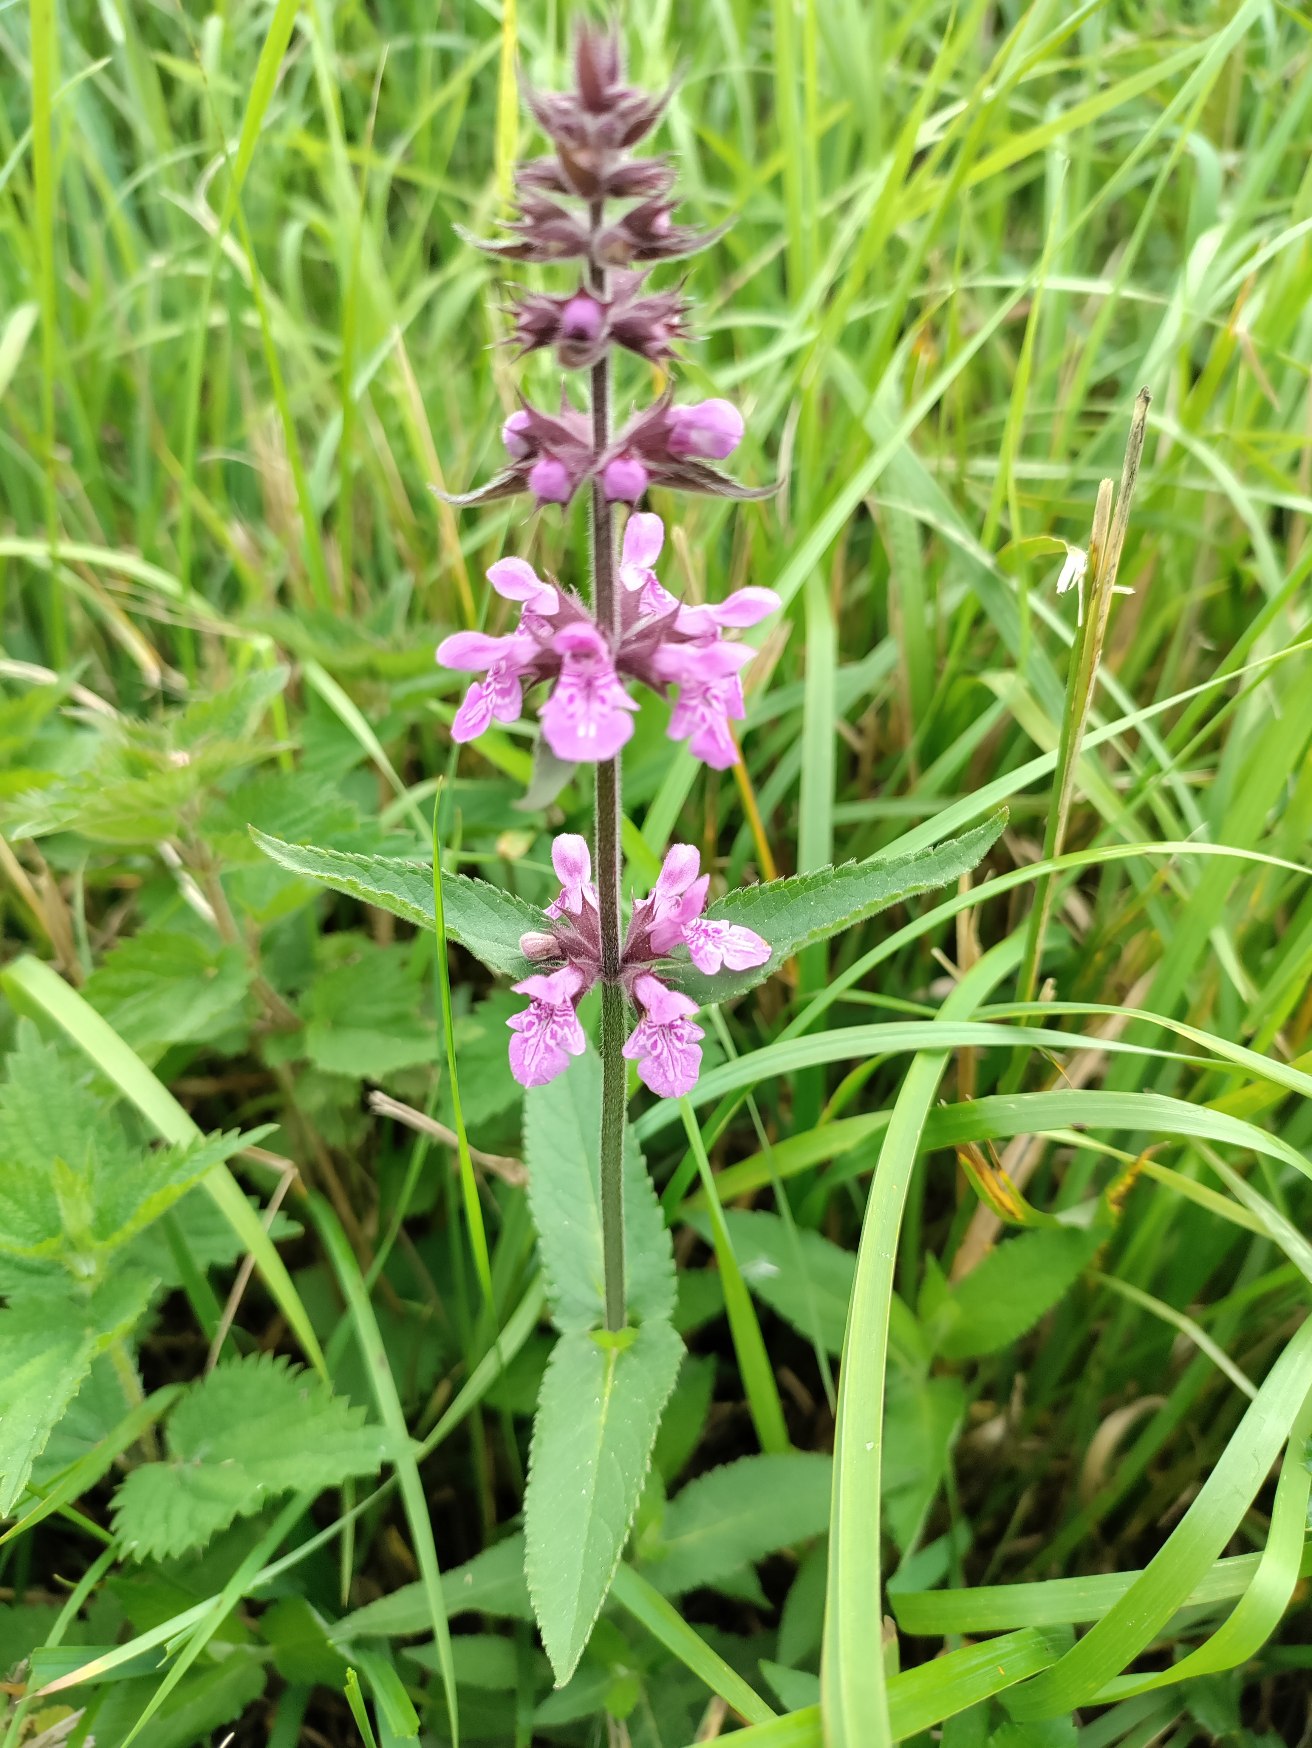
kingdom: Plantae
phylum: Tracheophyta
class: Magnoliopsida
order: Lamiales
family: Lamiaceae
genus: Stachys
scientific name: Stachys palustris
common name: Kær-galtetand
